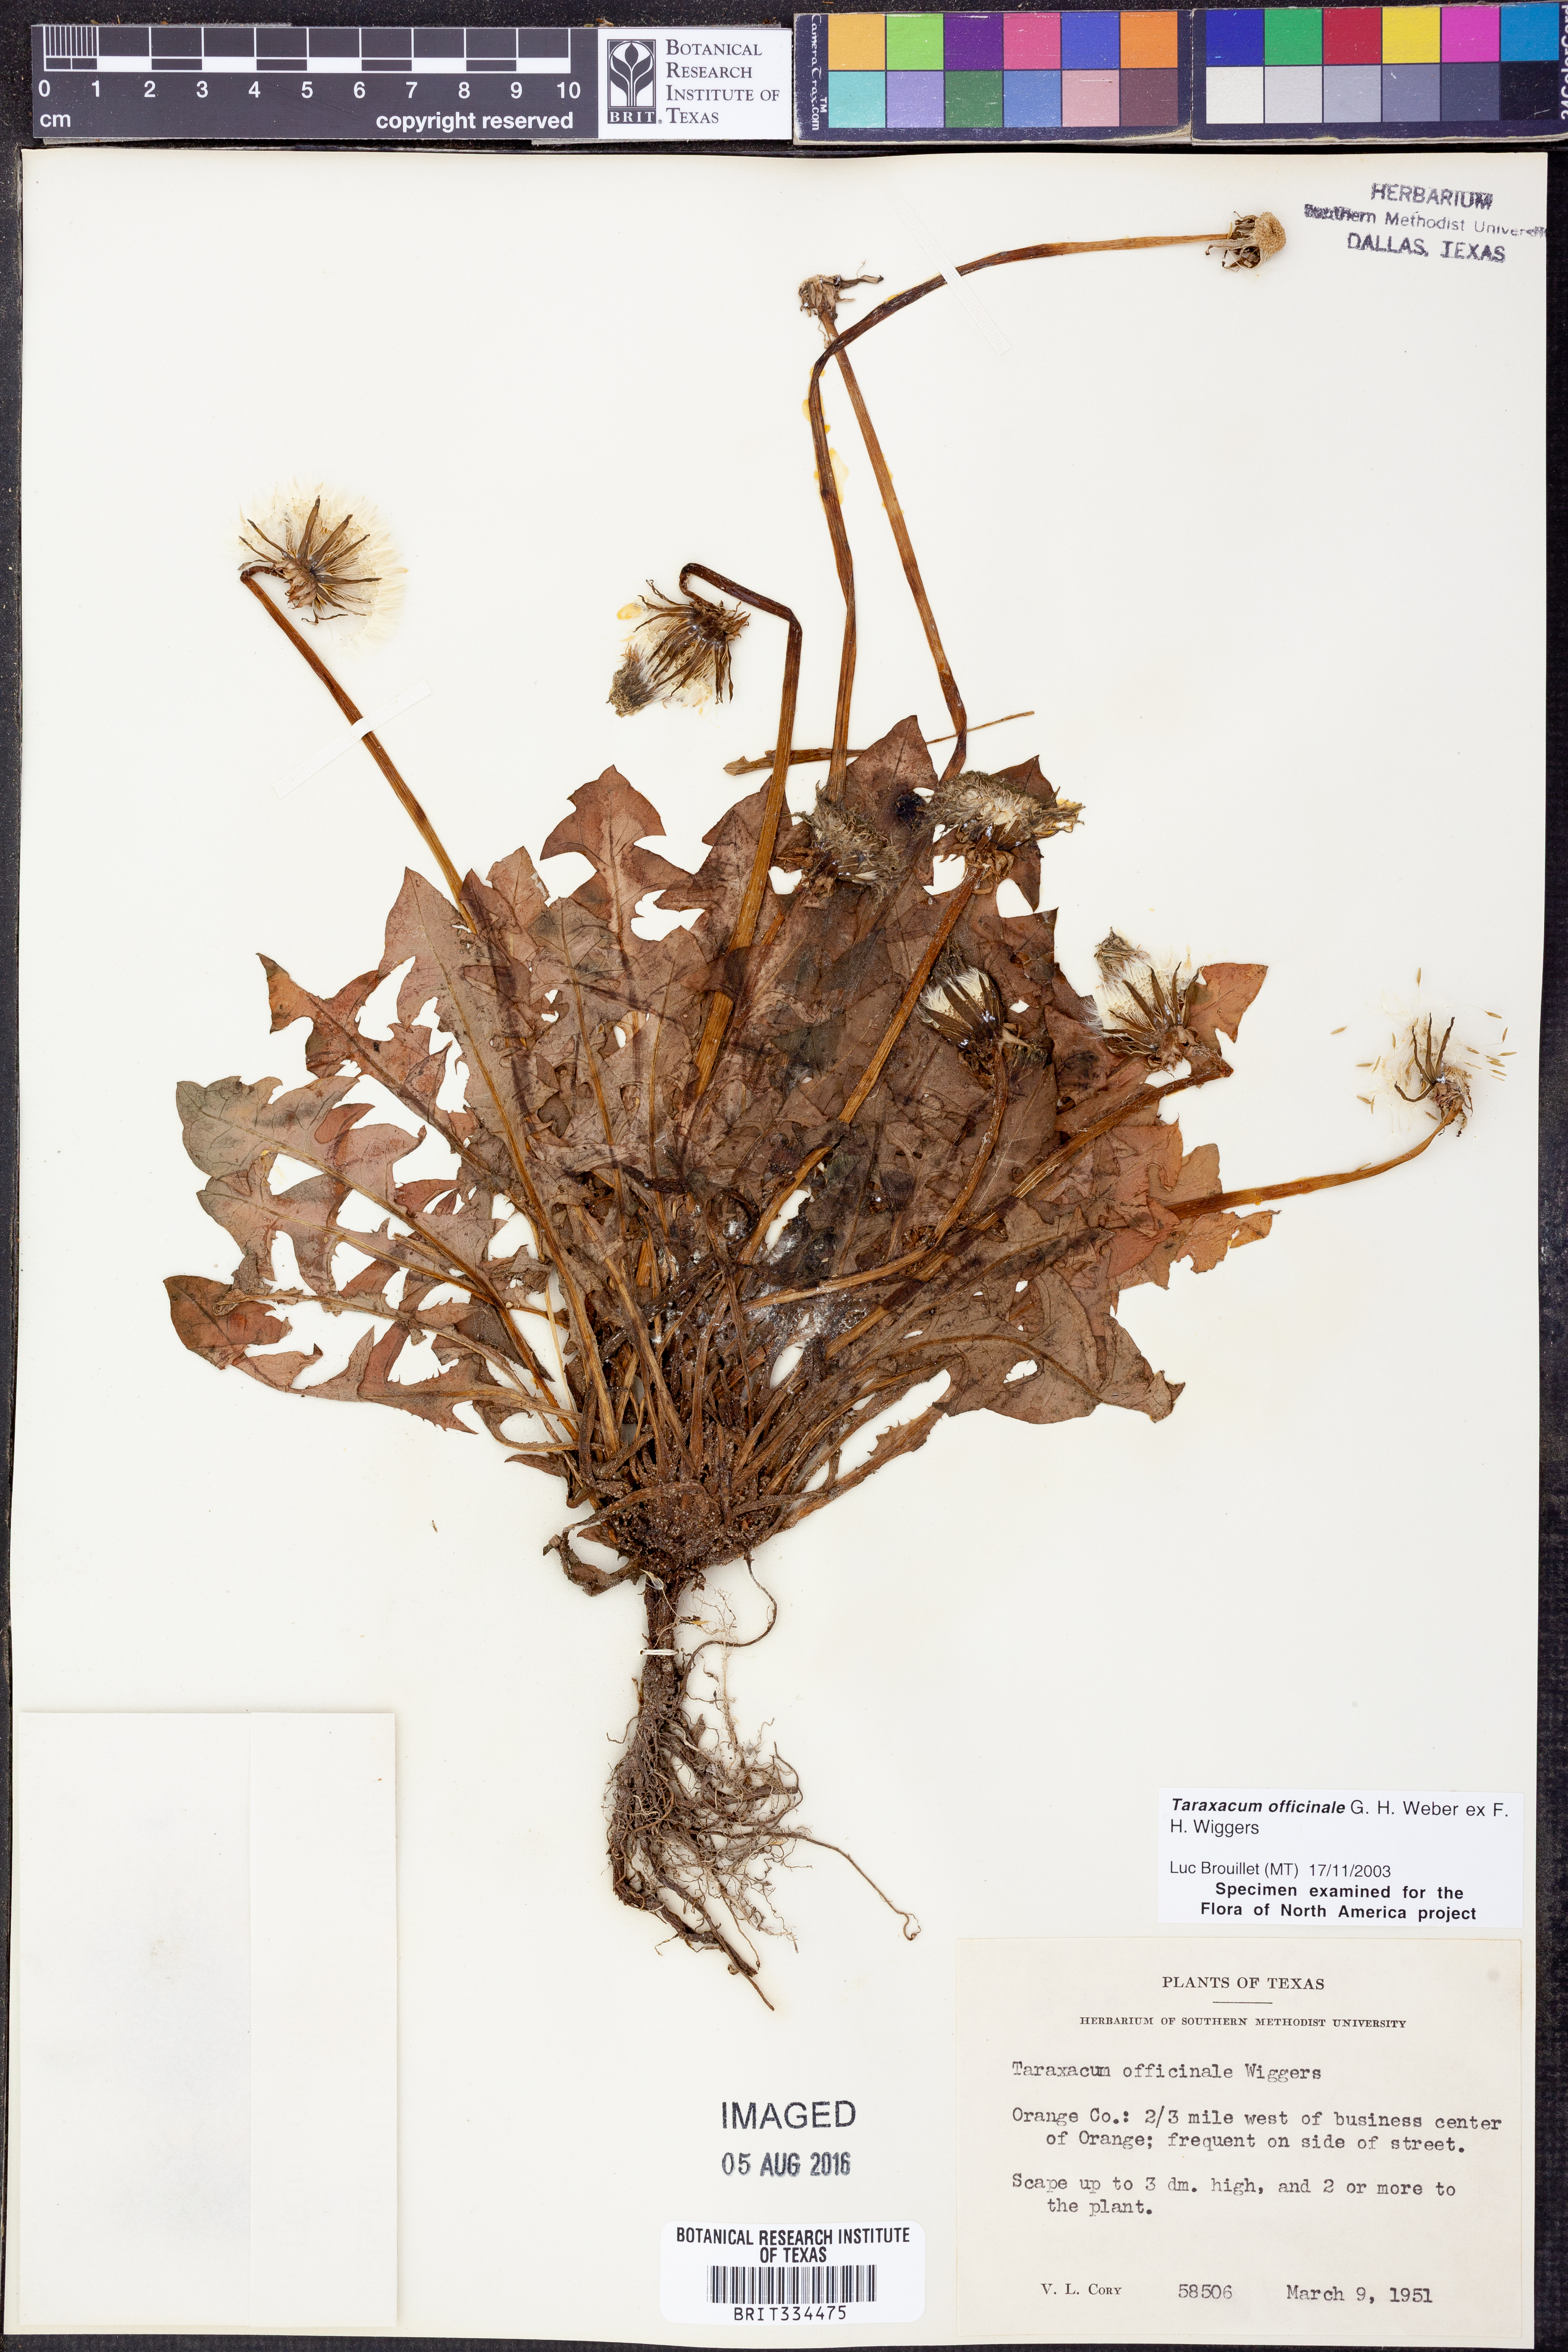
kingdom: Plantae
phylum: Tracheophyta
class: Magnoliopsida
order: Asterales
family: Asteraceae
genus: Taraxacum
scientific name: Taraxacum officinale
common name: Common dandelion
